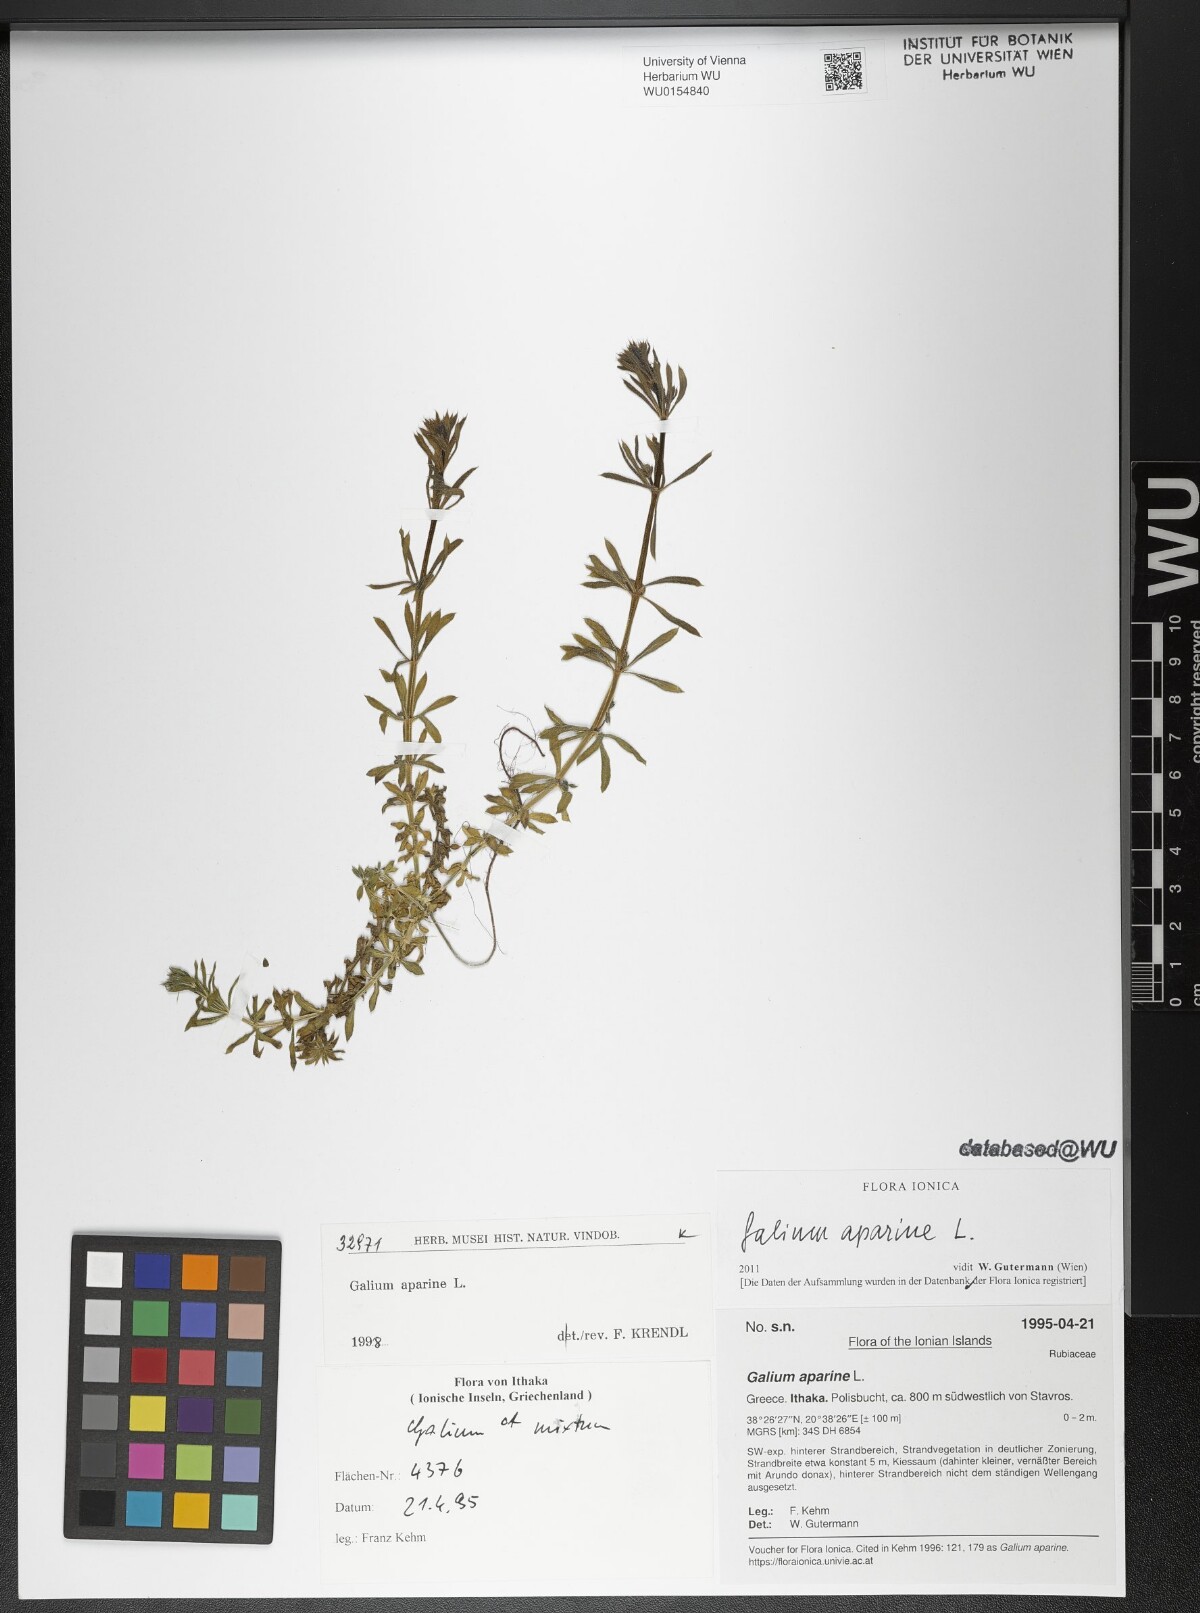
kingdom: Plantae
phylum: Tracheophyta
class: Magnoliopsida
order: Gentianales
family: Rubiaceae
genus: Galium
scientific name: Galium aparine
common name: Cleavers
